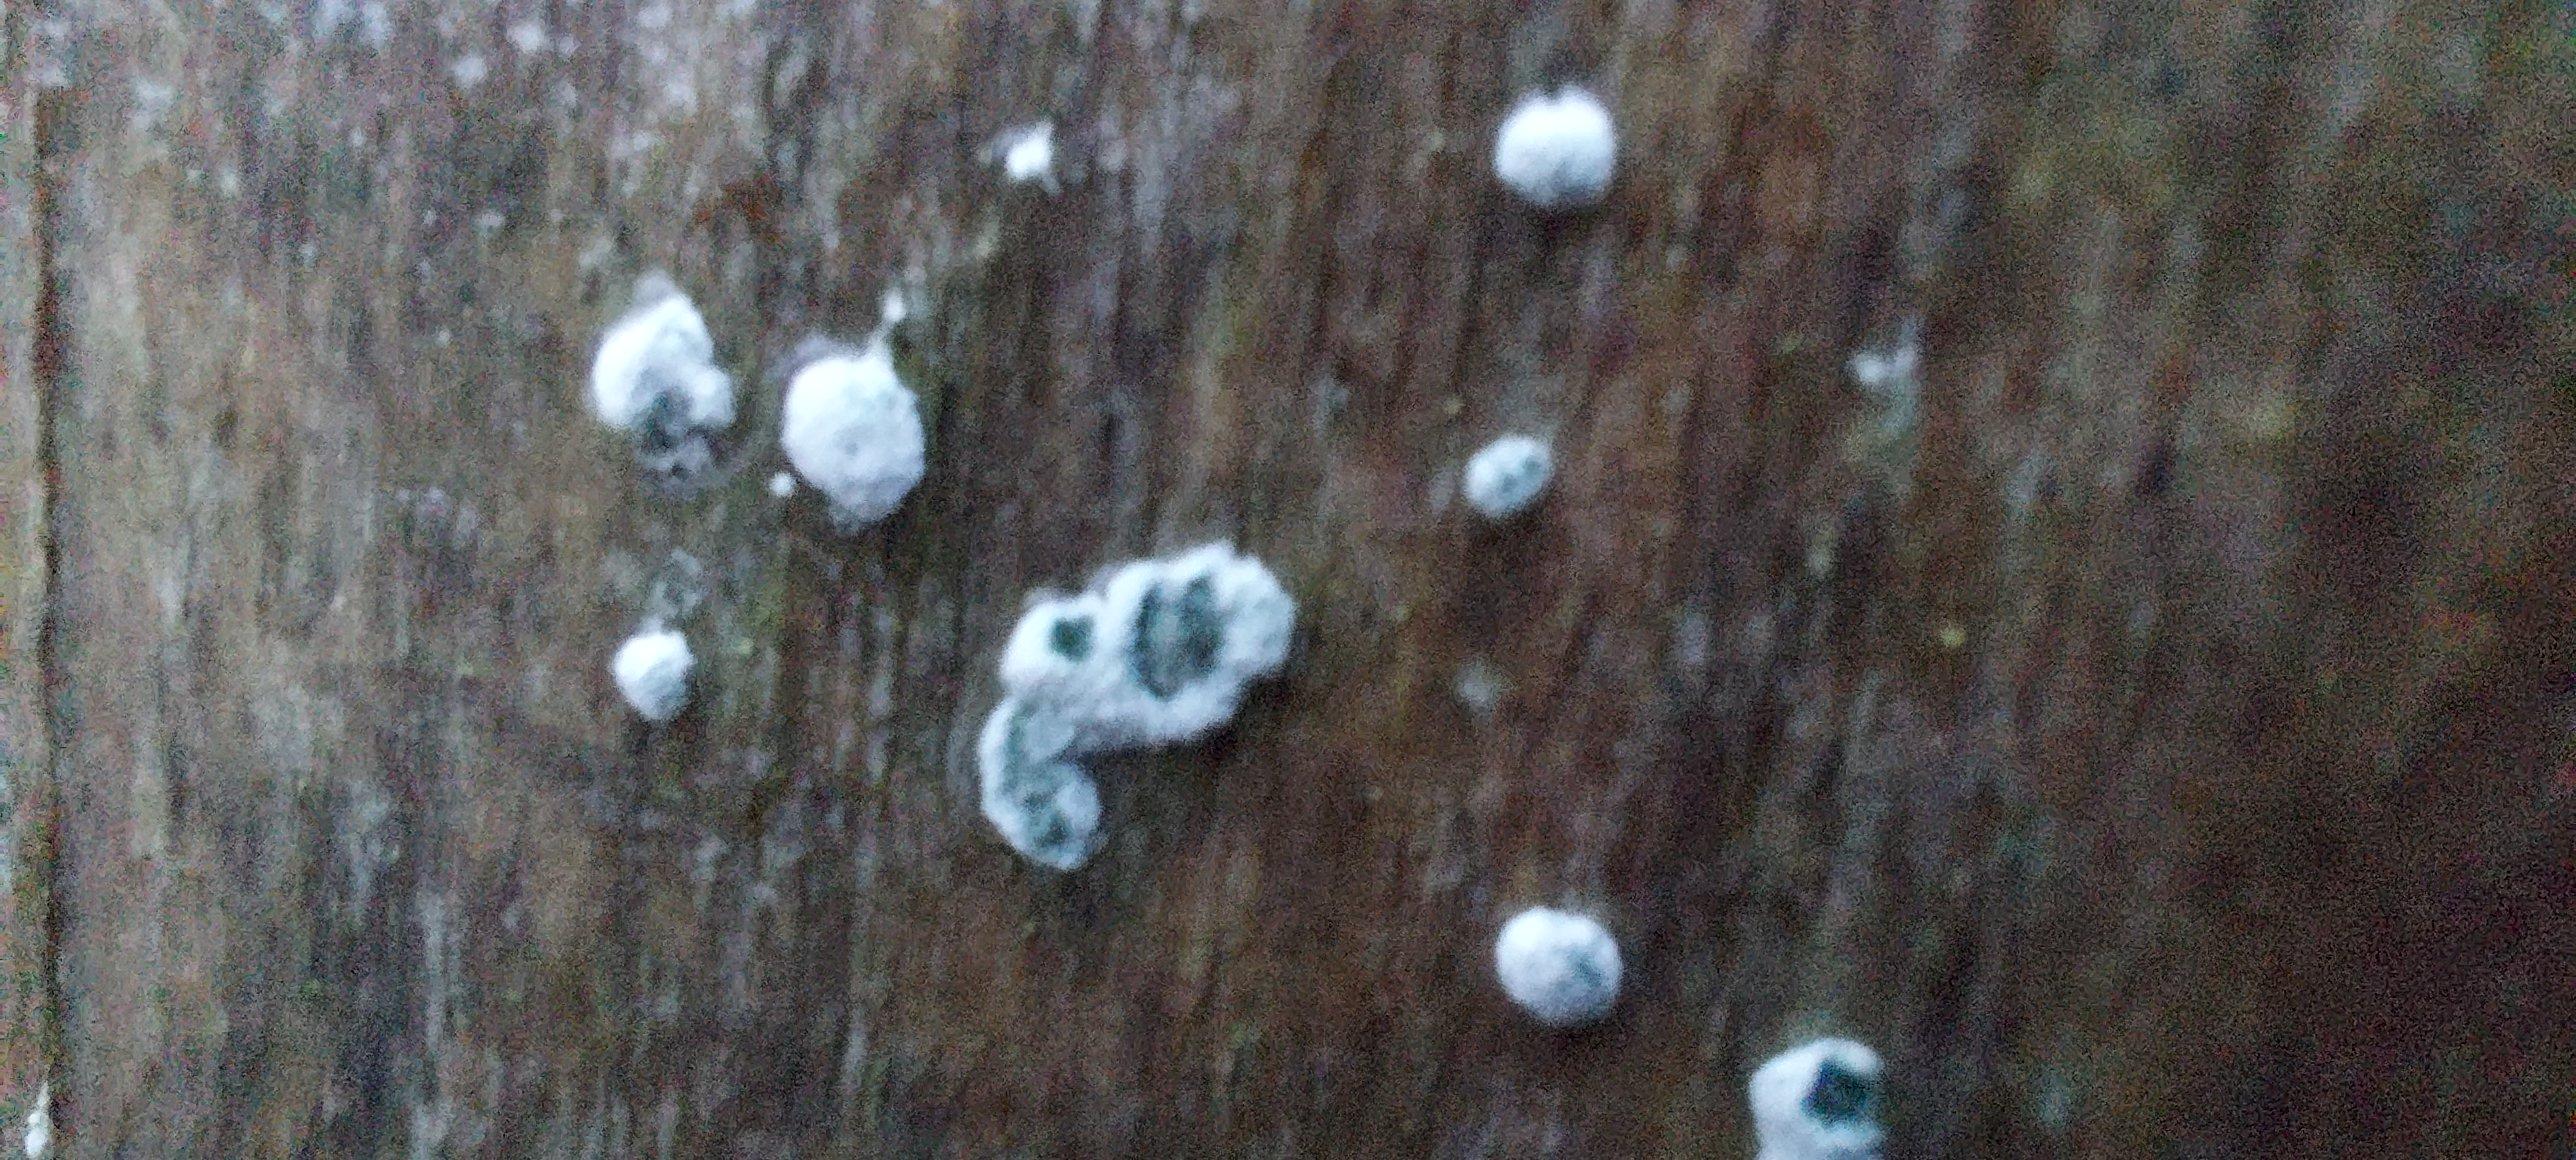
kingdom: Fungi
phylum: Ascomycota
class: Sordariomycetes
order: Hypocreales
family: Hypocreaceae
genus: Trichoderma
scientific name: Trichoderma
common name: kødkerne
